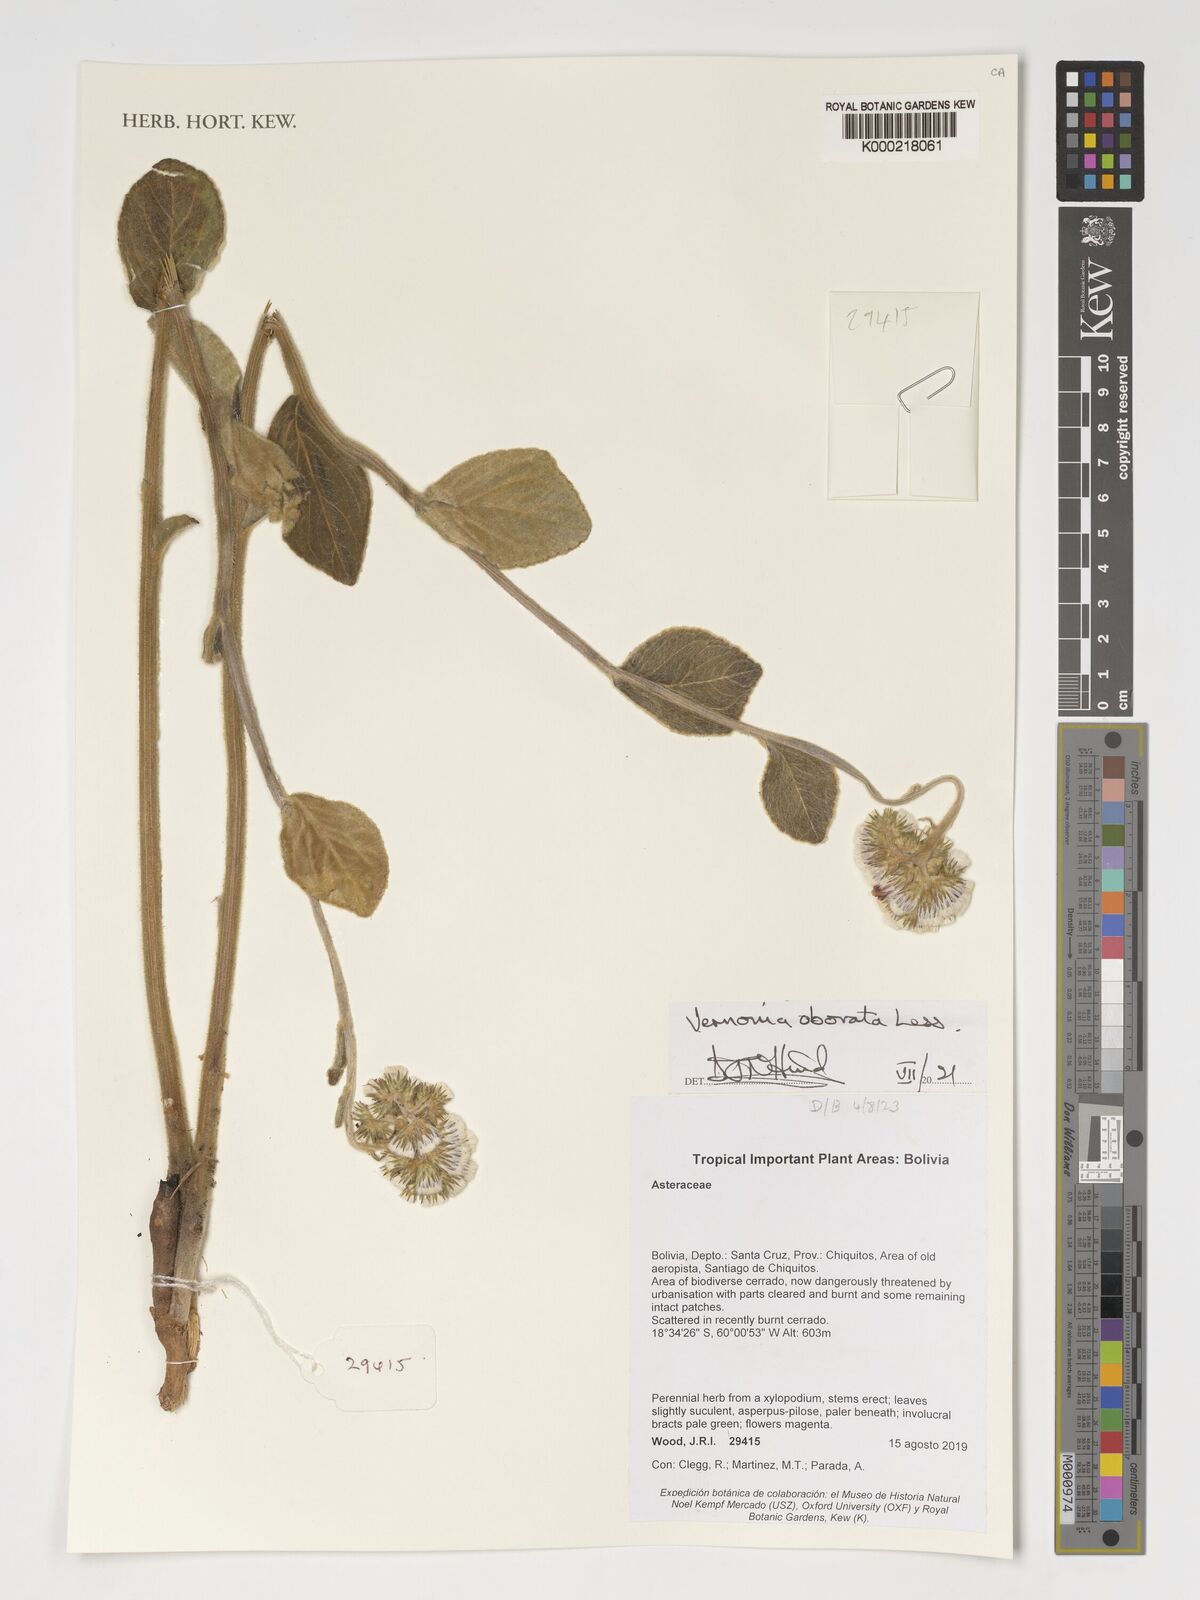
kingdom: Plantae
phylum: Tracheophyta
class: Magnoliopsida
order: Asterales
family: Asteraceae
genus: Chrysolaena
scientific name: Chrysolaena obovata
